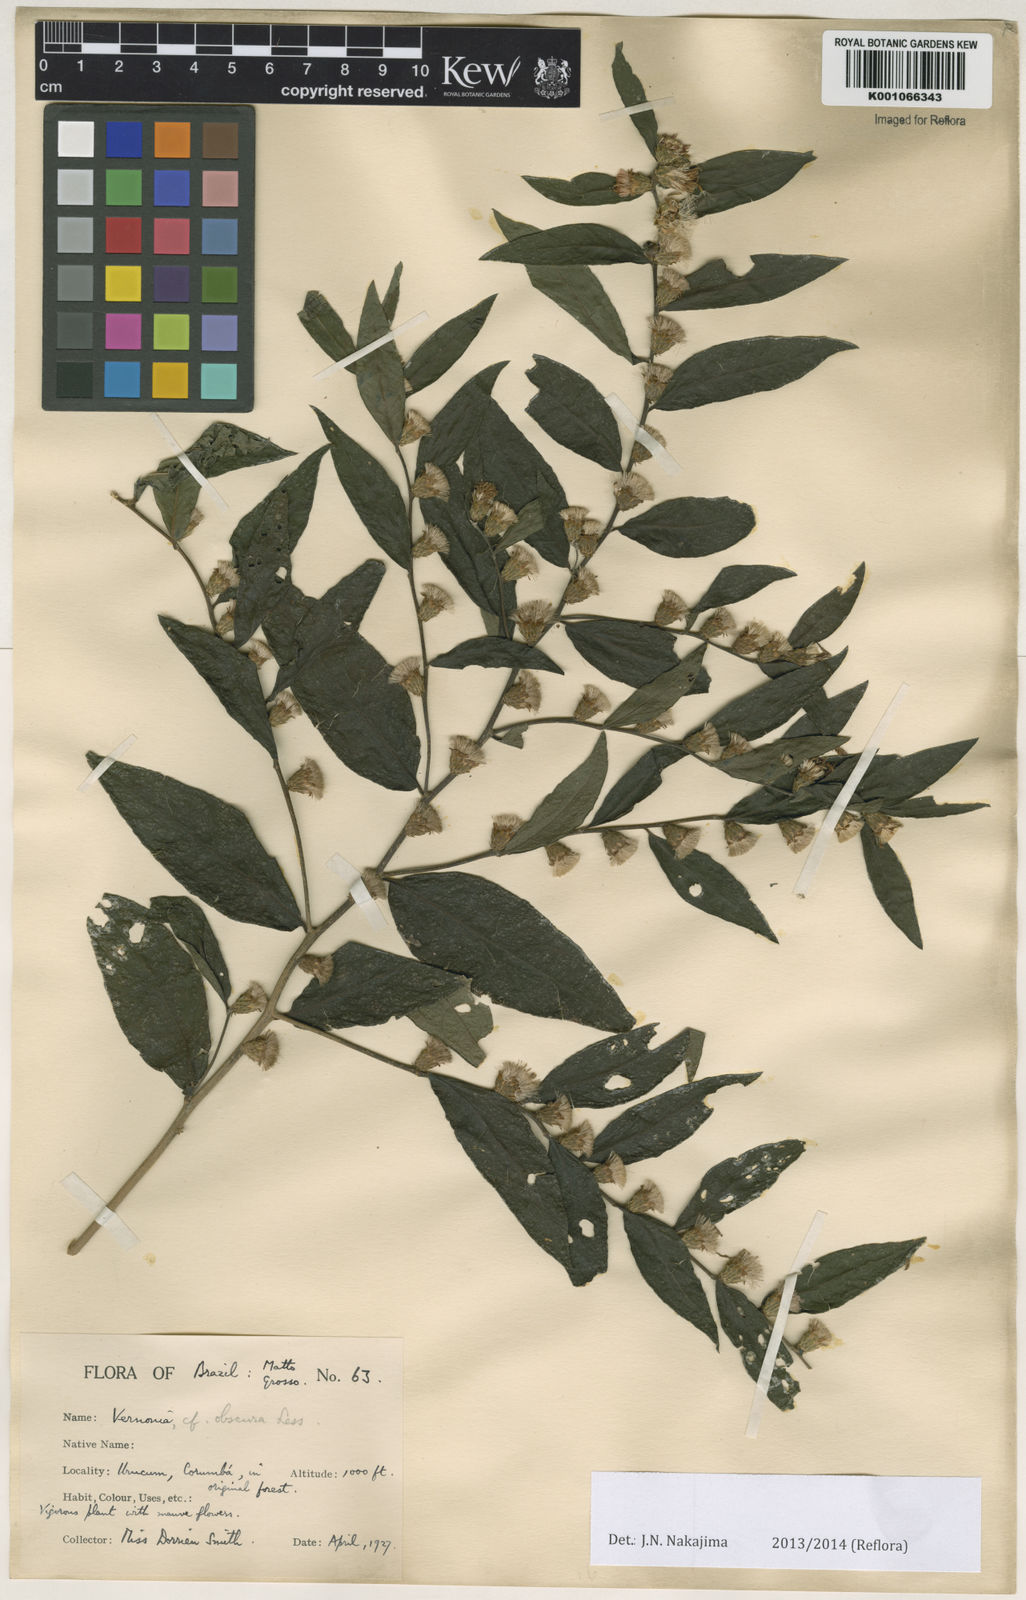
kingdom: Plantae
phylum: Tracheophyta
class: Magnoliopsida
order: Asterales
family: Asteraceae
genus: Vernonia
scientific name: Vernonia subobscura
